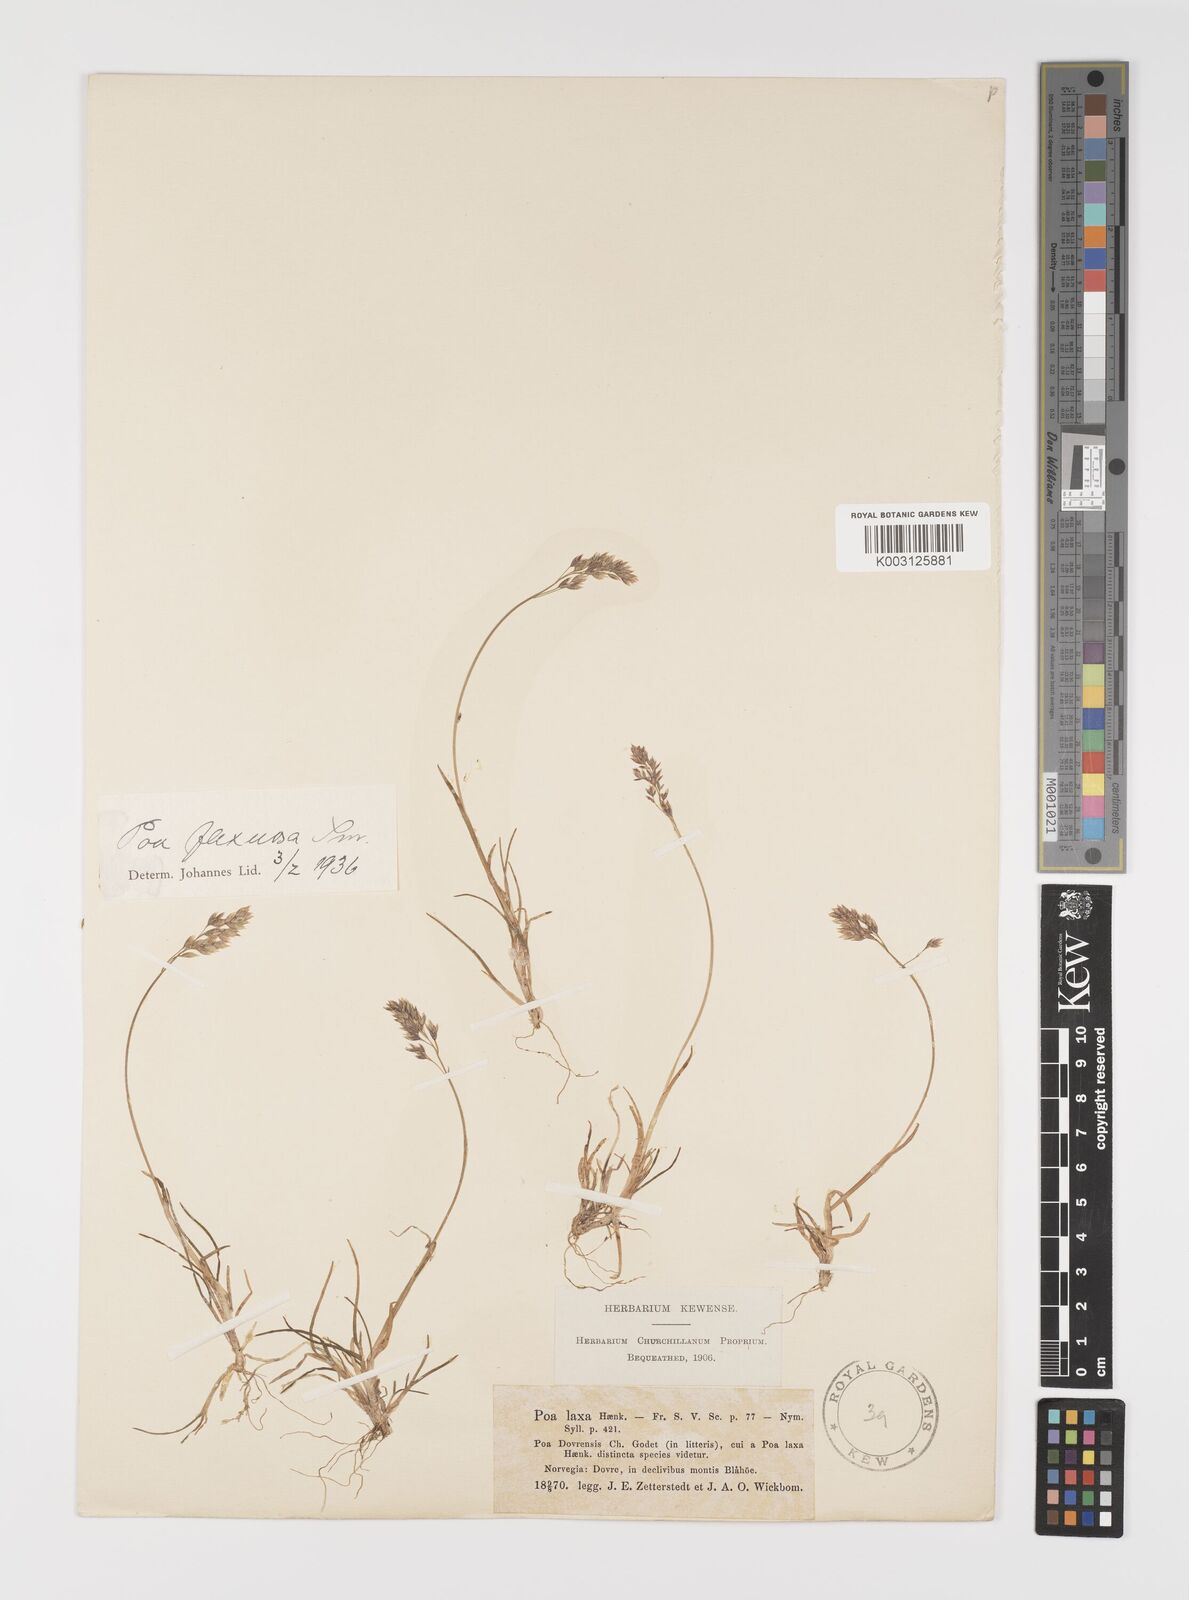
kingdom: Plantae
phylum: Tracheophyta
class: Liliopsida
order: Poales
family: Poaceae
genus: Eragrostis
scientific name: Eragrostis cilianensis
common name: Stinkgrass
